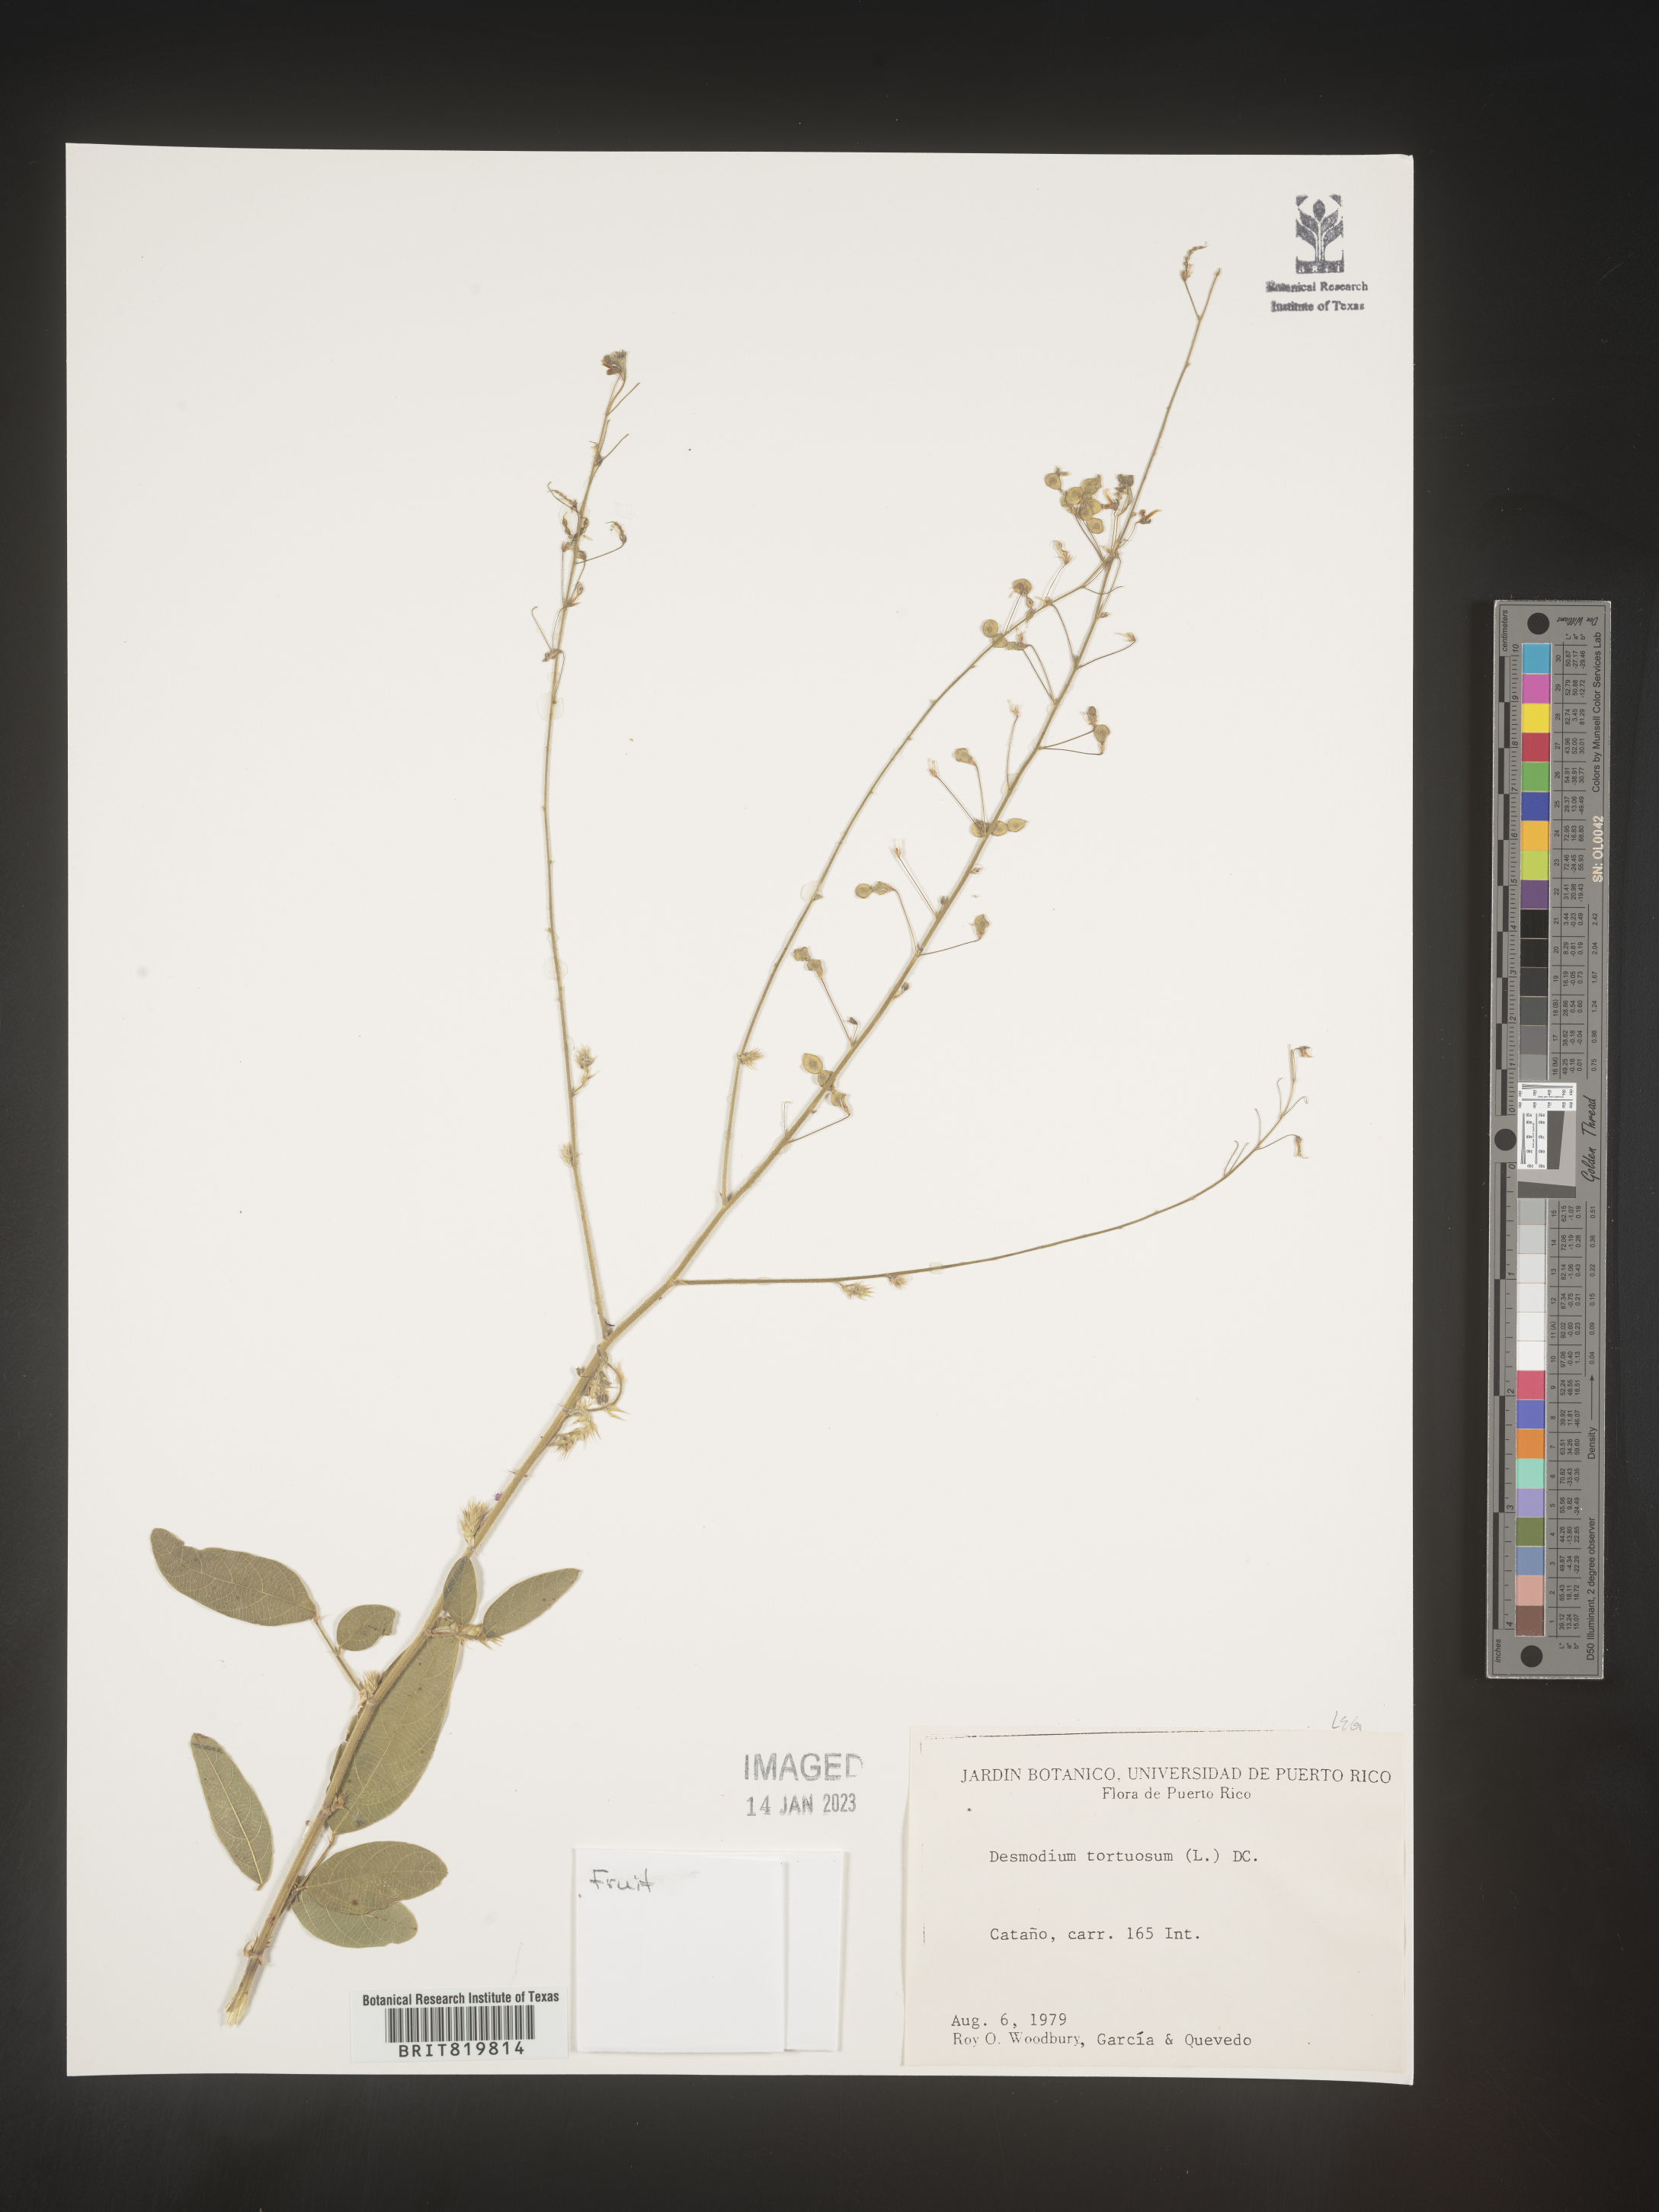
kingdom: Plantae
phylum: Tracheophyta
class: Magnoliopsida
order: Fabales
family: Fabaceae
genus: Desmodium
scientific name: Desmodium
